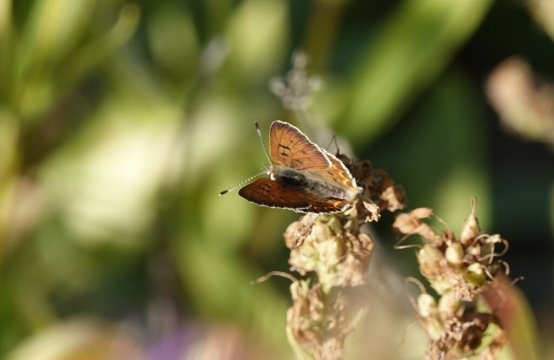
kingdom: Animalia
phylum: Arthropoda
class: Insecta
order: Lepidoptera
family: Sesiidae
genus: Sesia
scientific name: Sesia Lycaena helloides
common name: Purplish Copper
